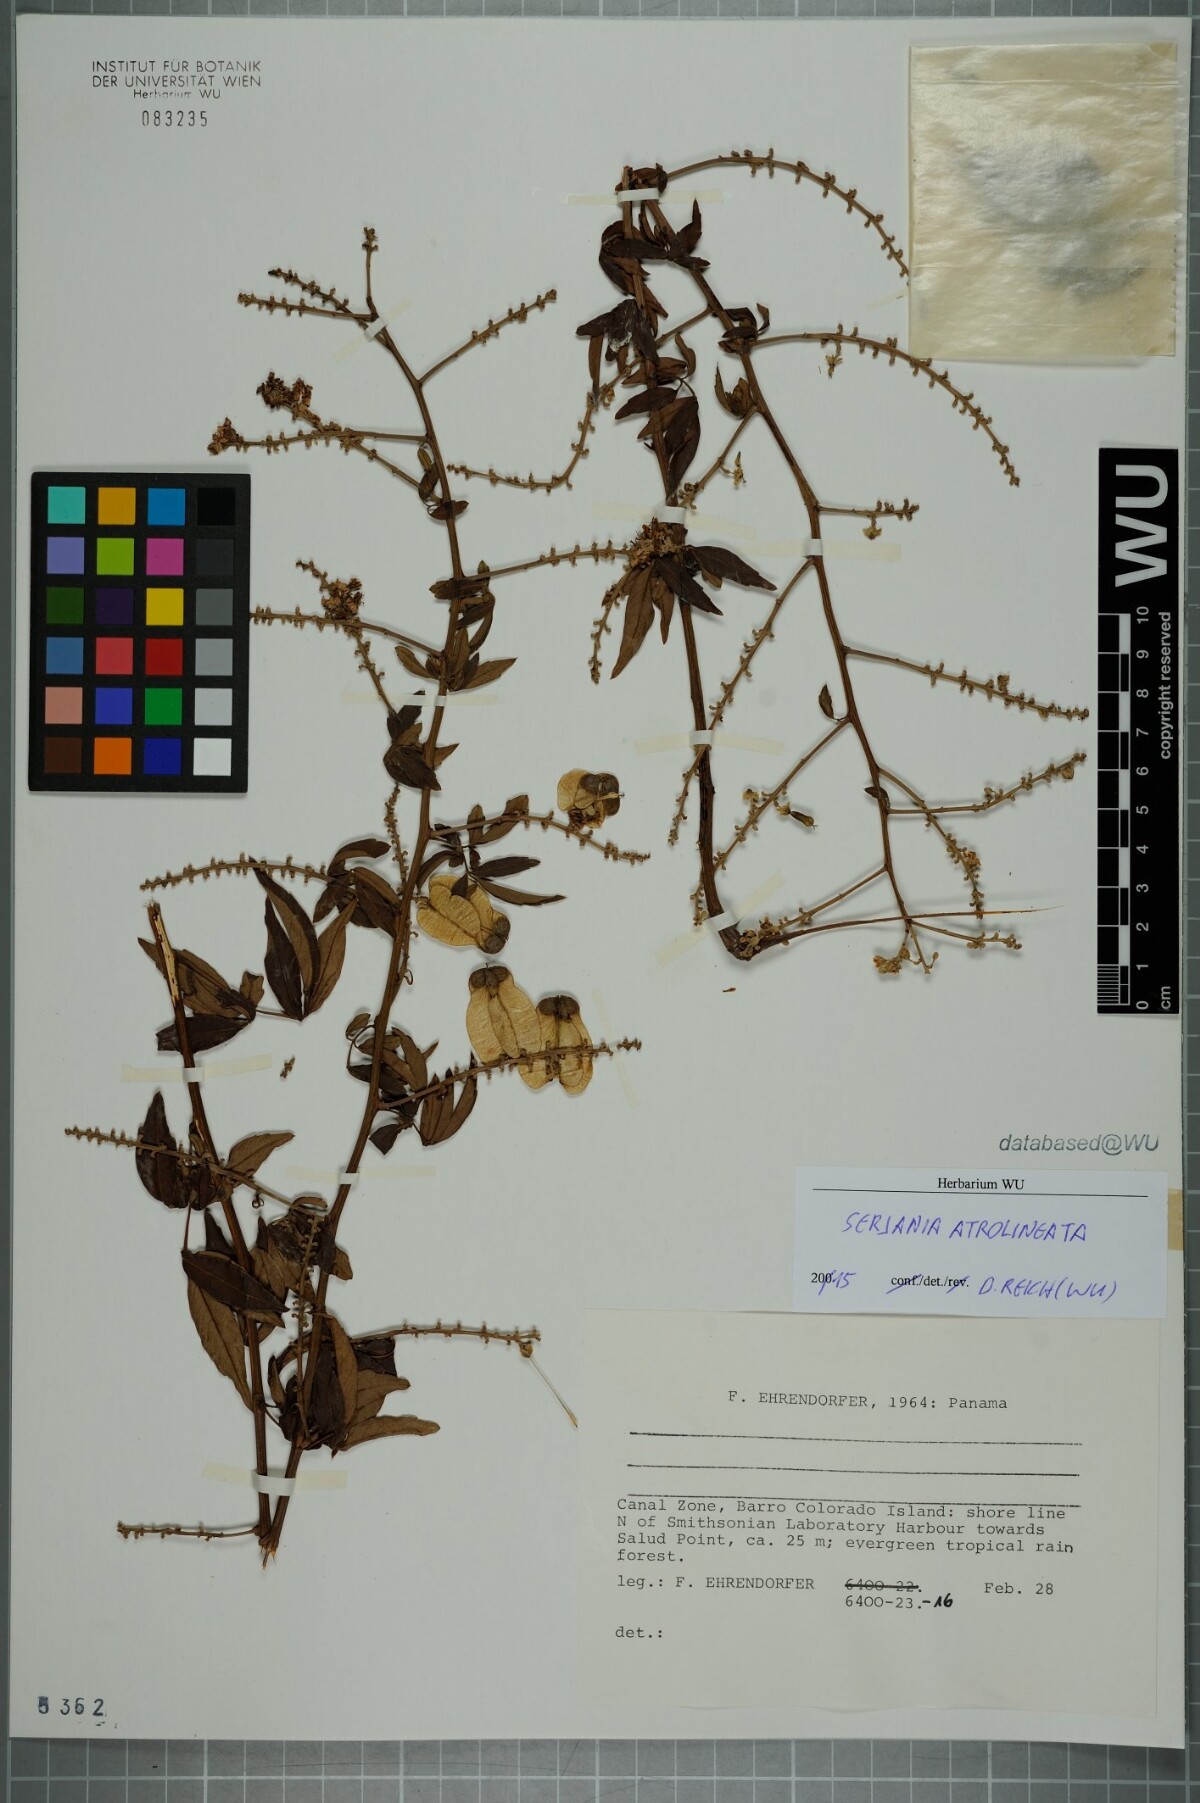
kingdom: Plantae
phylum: Tracheophyta
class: Magnoliopsida
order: Sapindales
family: Sapindaceae
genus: Serjania
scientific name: Serjania atrolineata
